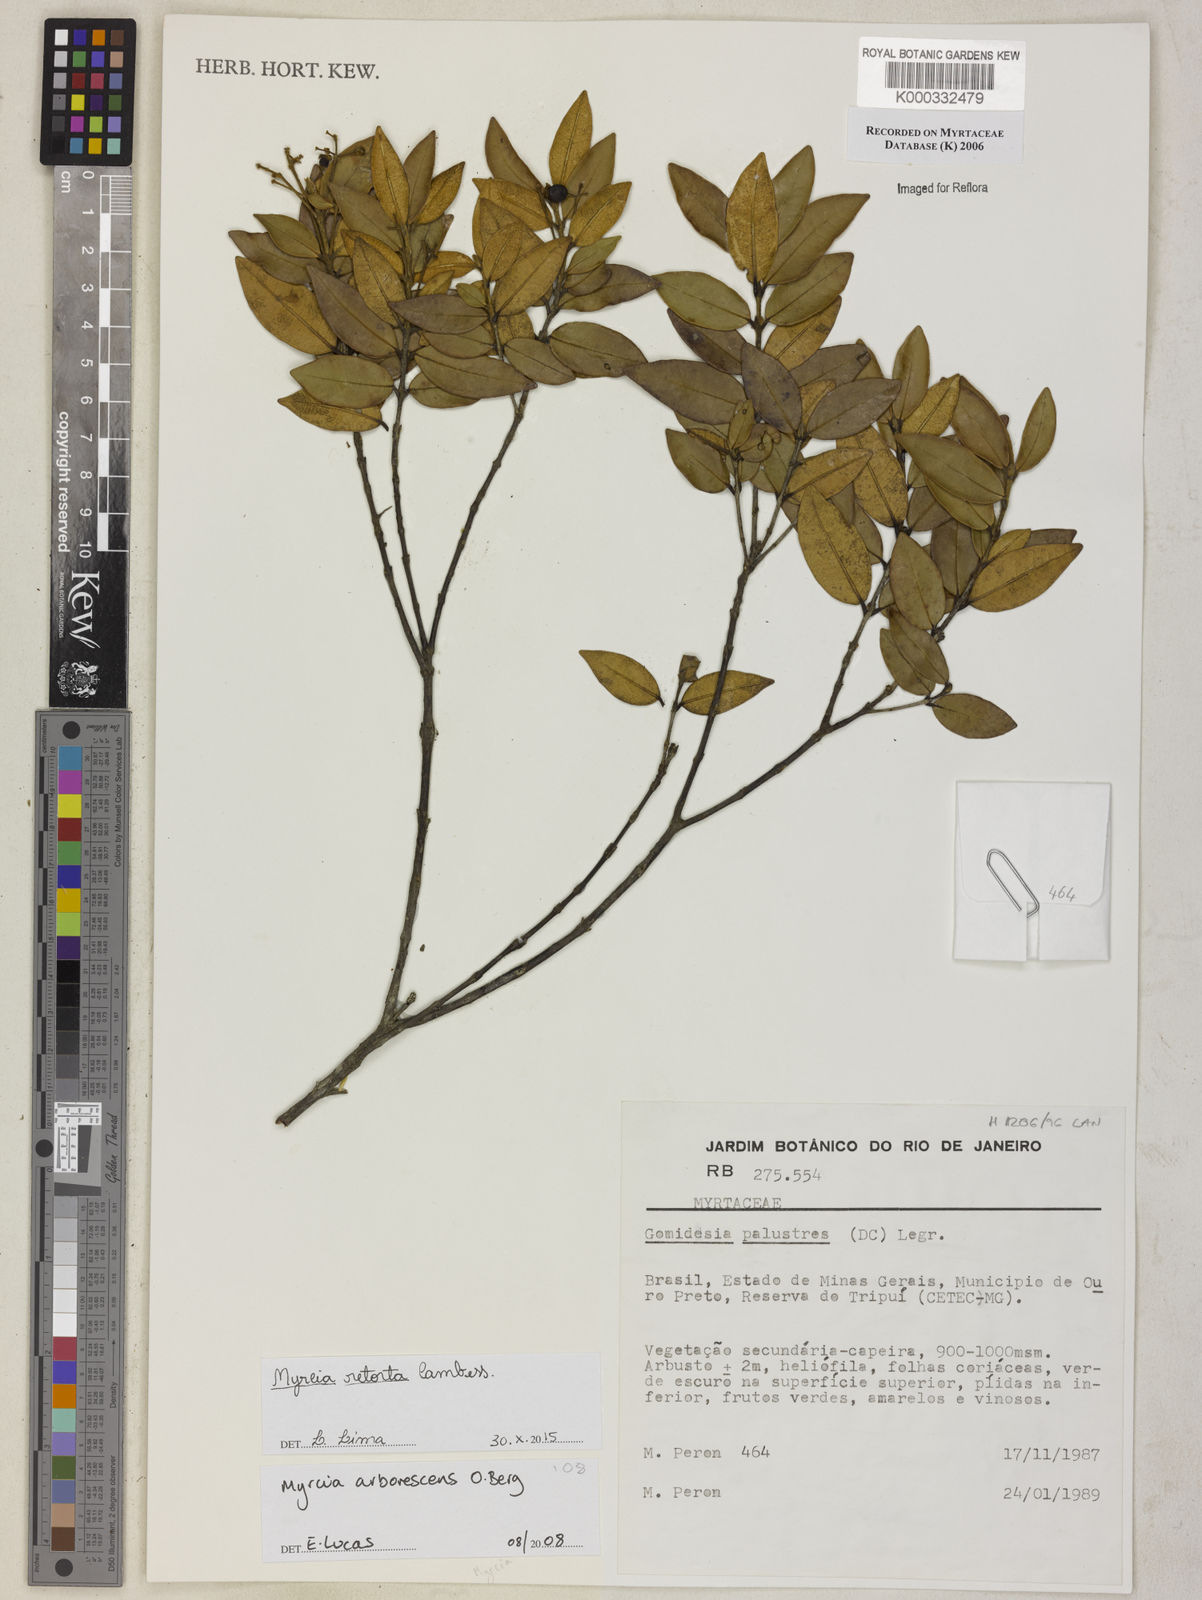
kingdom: Plantae
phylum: Tracheophyta
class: Magnoliopsida
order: Myrtales
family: Myrtaceae
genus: Myrcia
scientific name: Myrcia retorta
